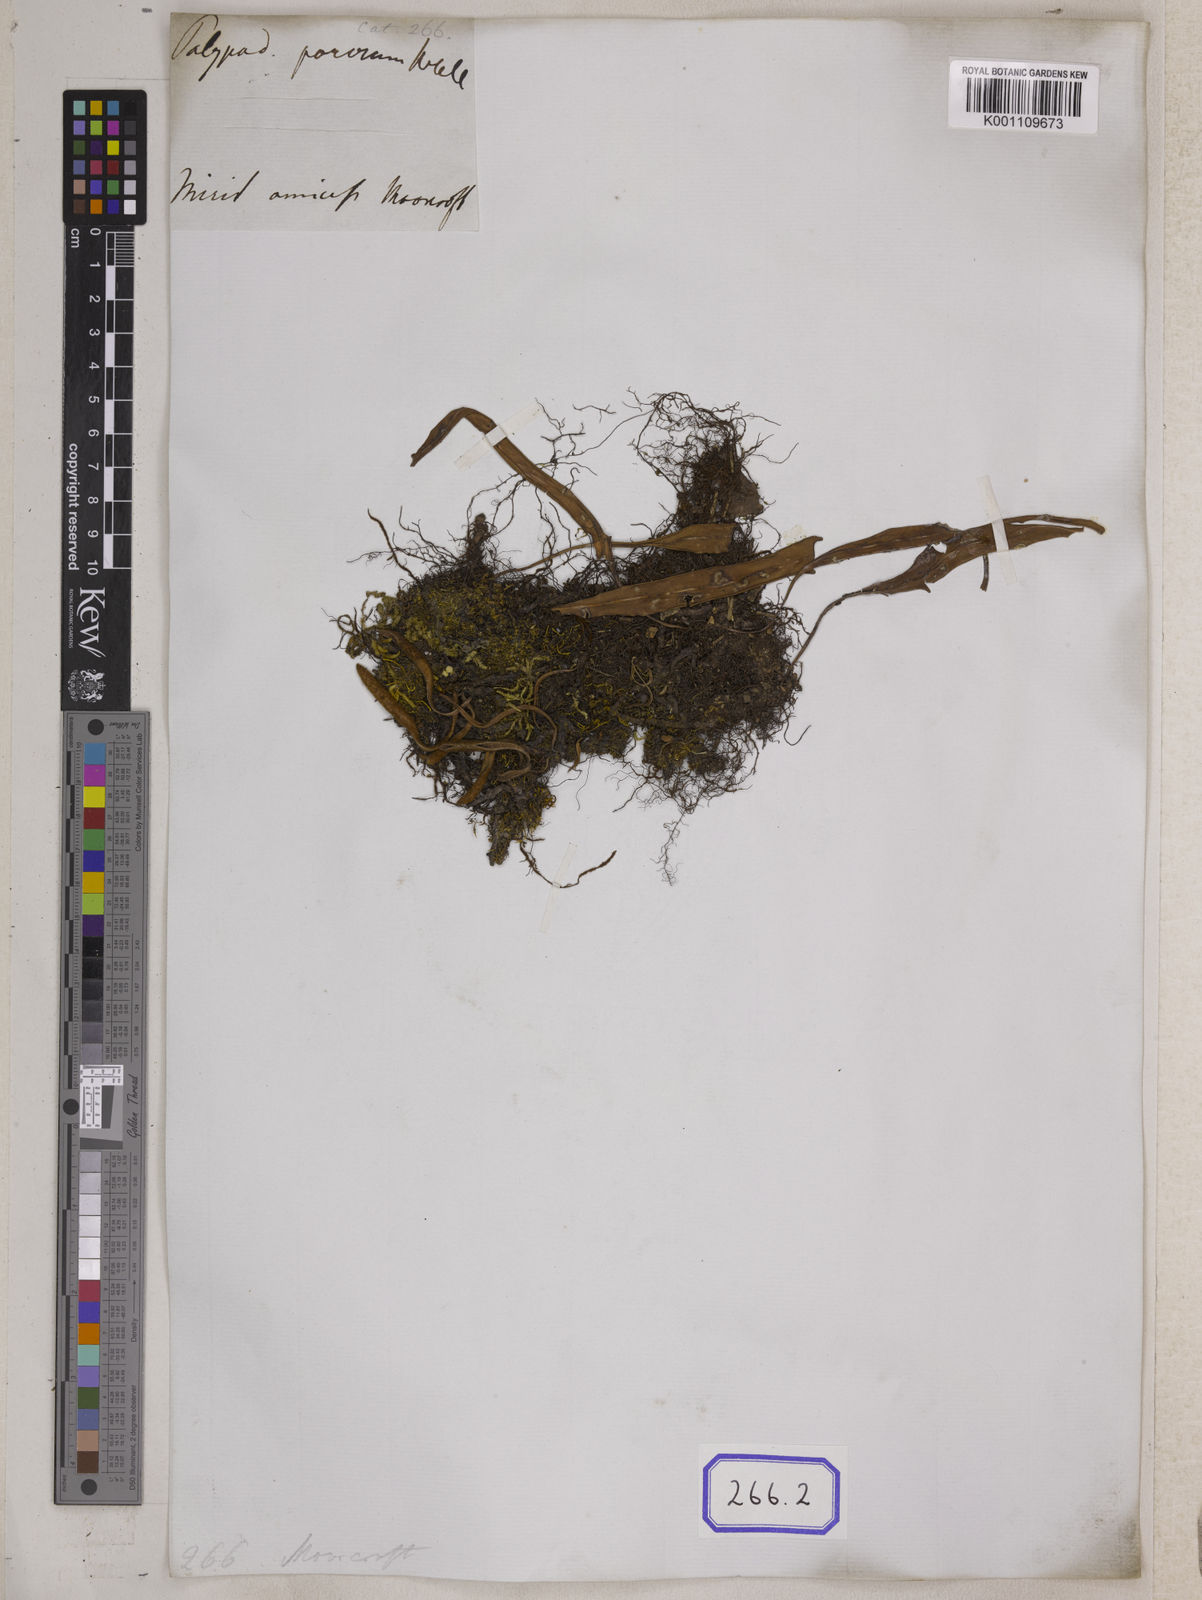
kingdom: Plantae
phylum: Tracheophyta
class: Polypodiopsida
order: Polypodiales
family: Polypodiaceae
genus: Pyrrosia
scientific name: Pyrrosia porosa
